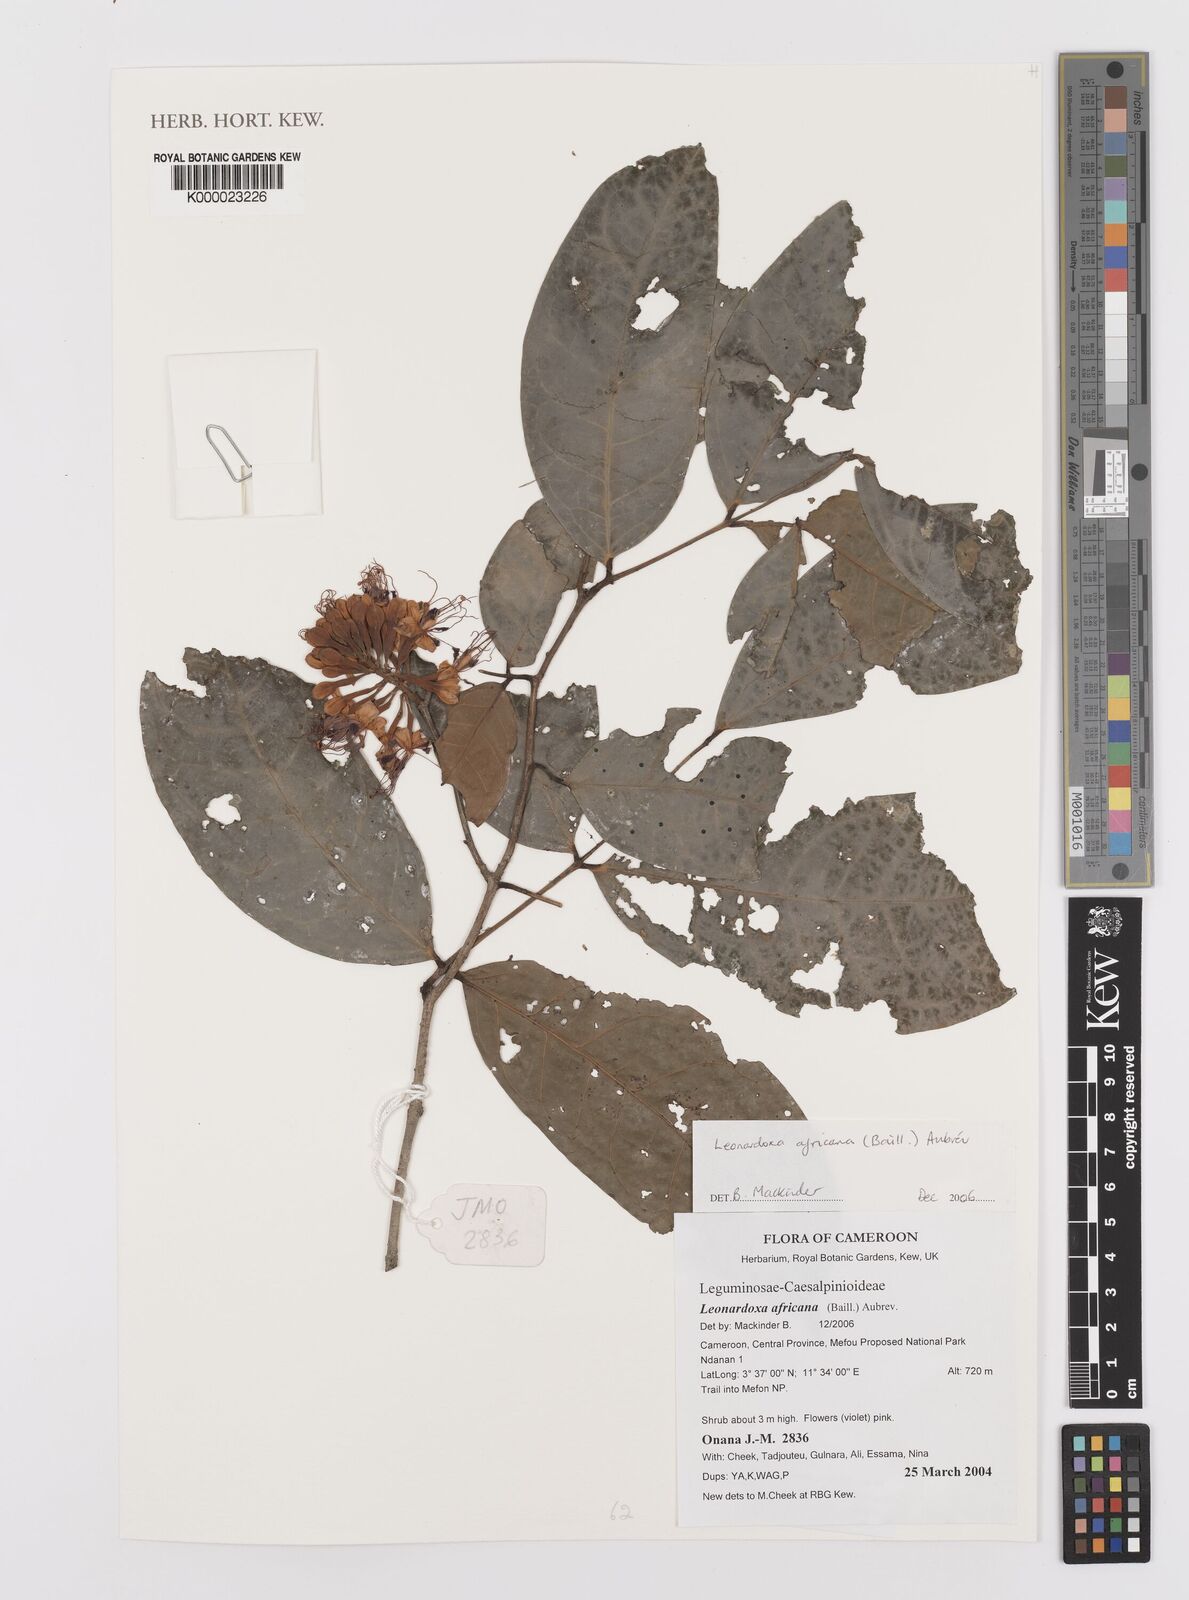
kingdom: Plantae
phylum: Tracheophyta
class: Magnoliopsida
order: Fabales
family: Fabaceae
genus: Leonardoxa
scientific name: Leonardoxa africana
